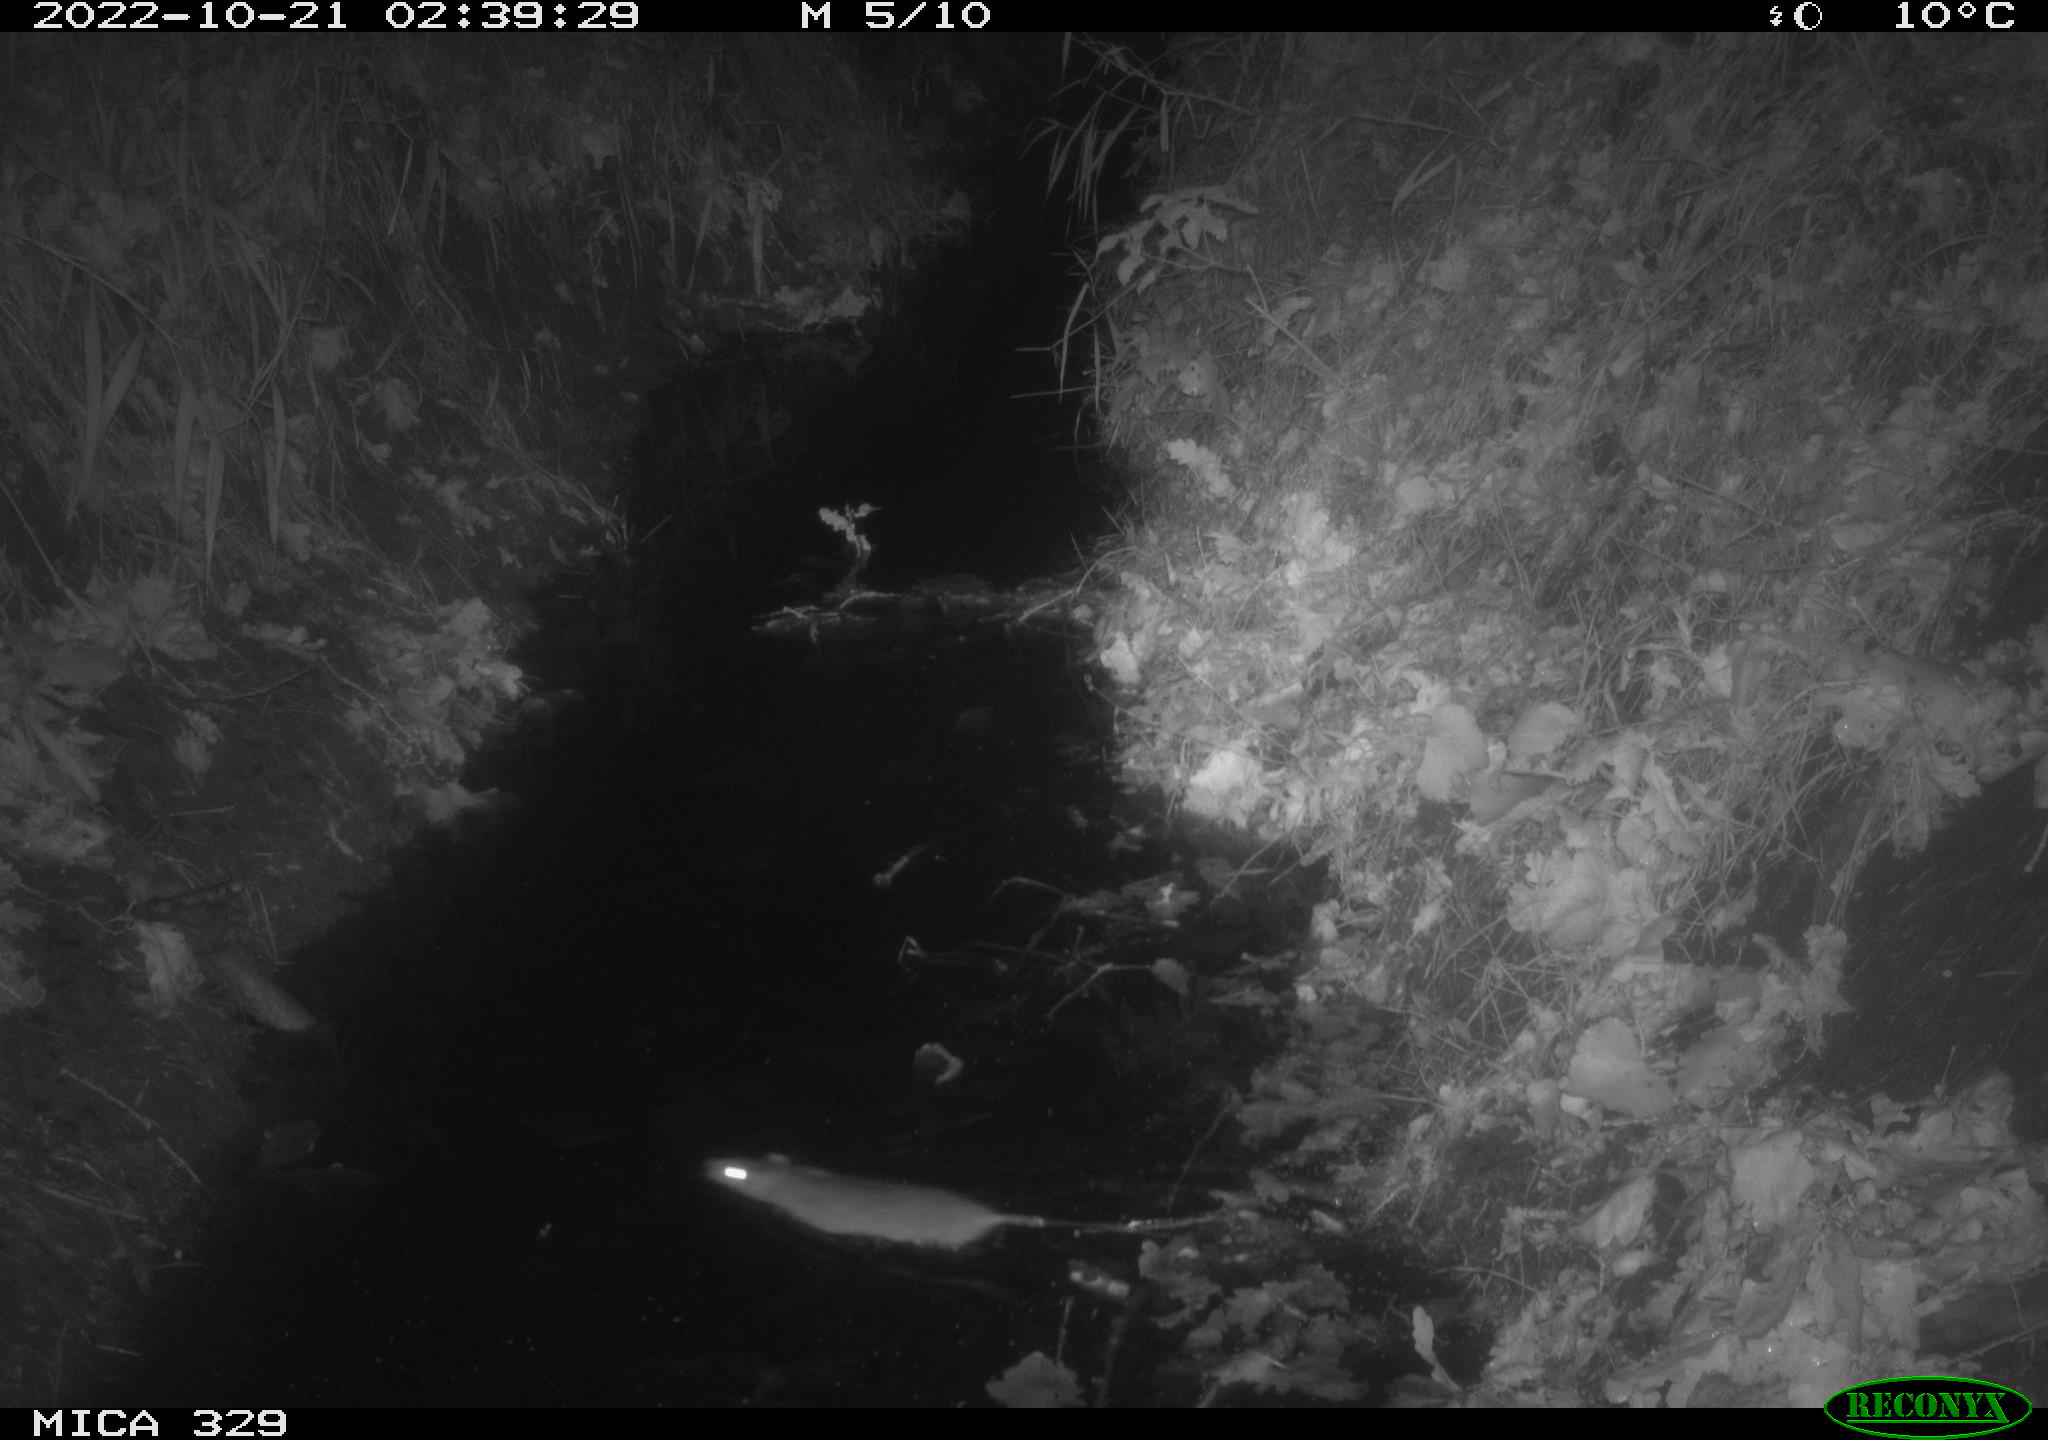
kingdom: Animalia
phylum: Chordata
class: Mammalia
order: Rodentia
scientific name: Rodentia
